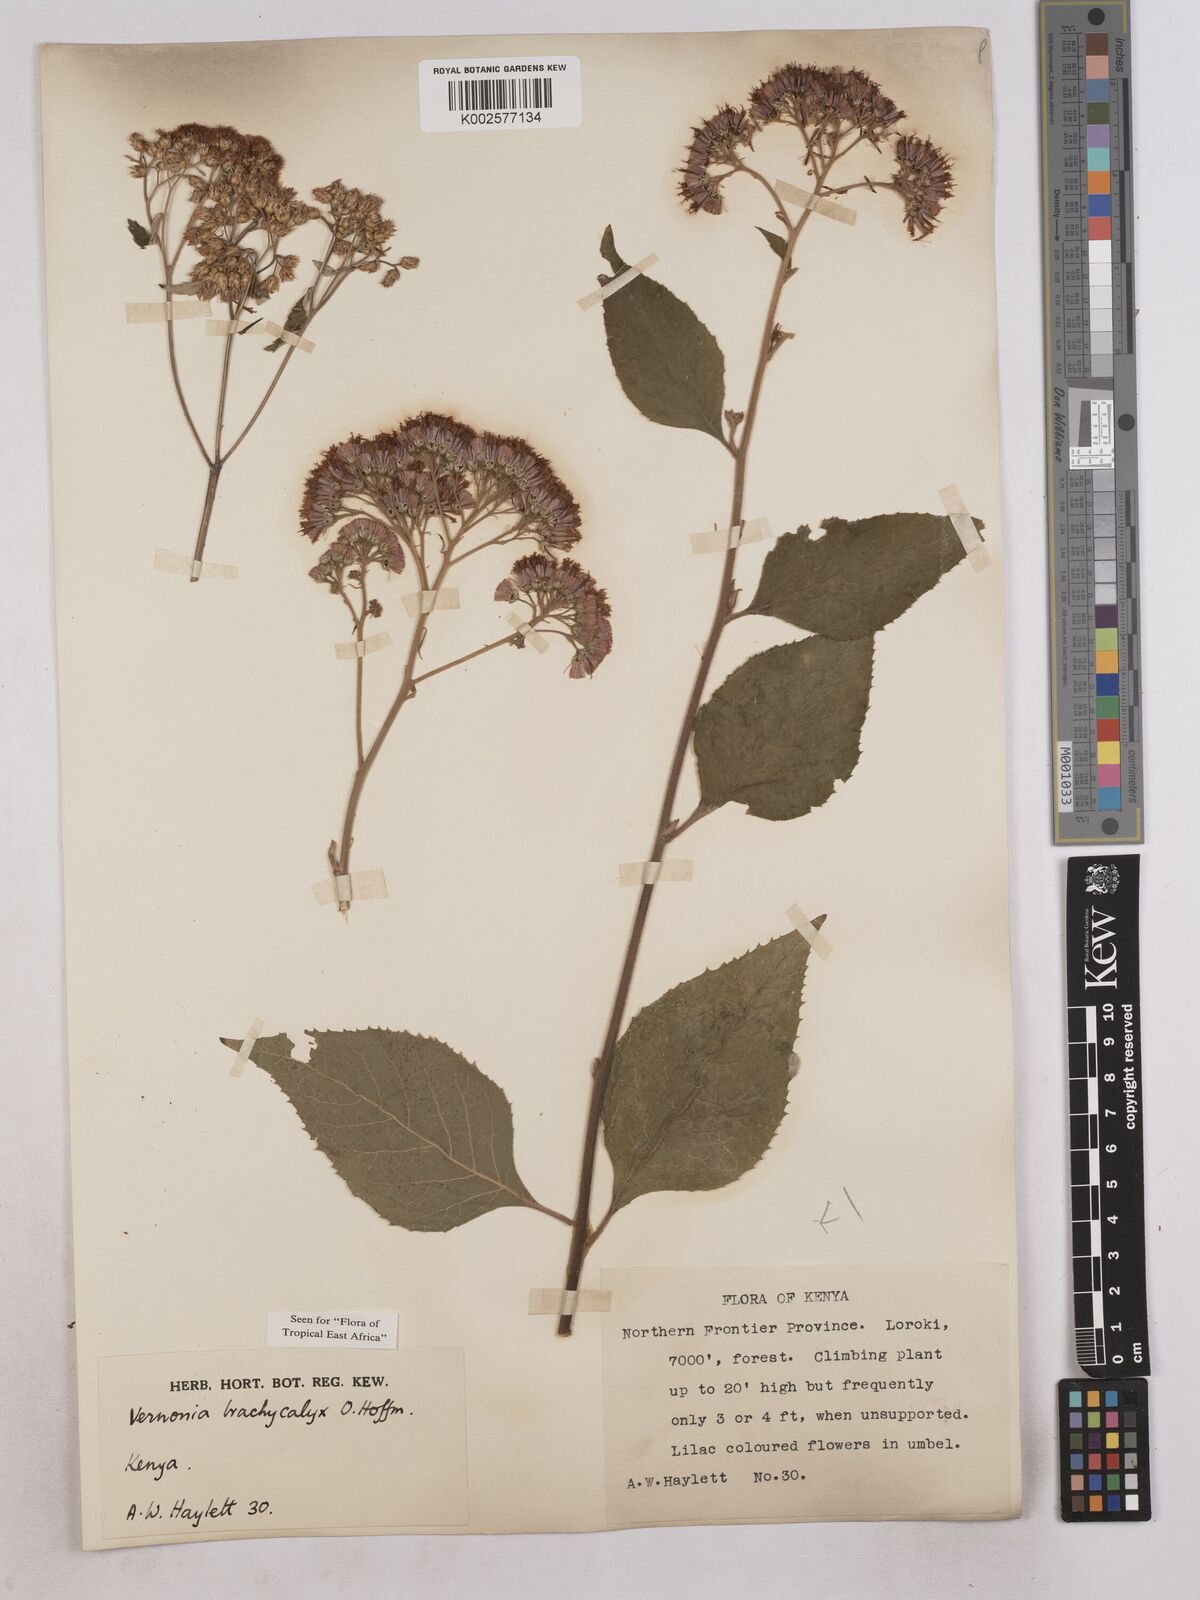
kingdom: Plantae
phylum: Tracheophyta
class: Magnoliopsida
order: Asterales
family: Asteraceae
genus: Hoffmannanthus
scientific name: Hoffmannanthus abbotianus
